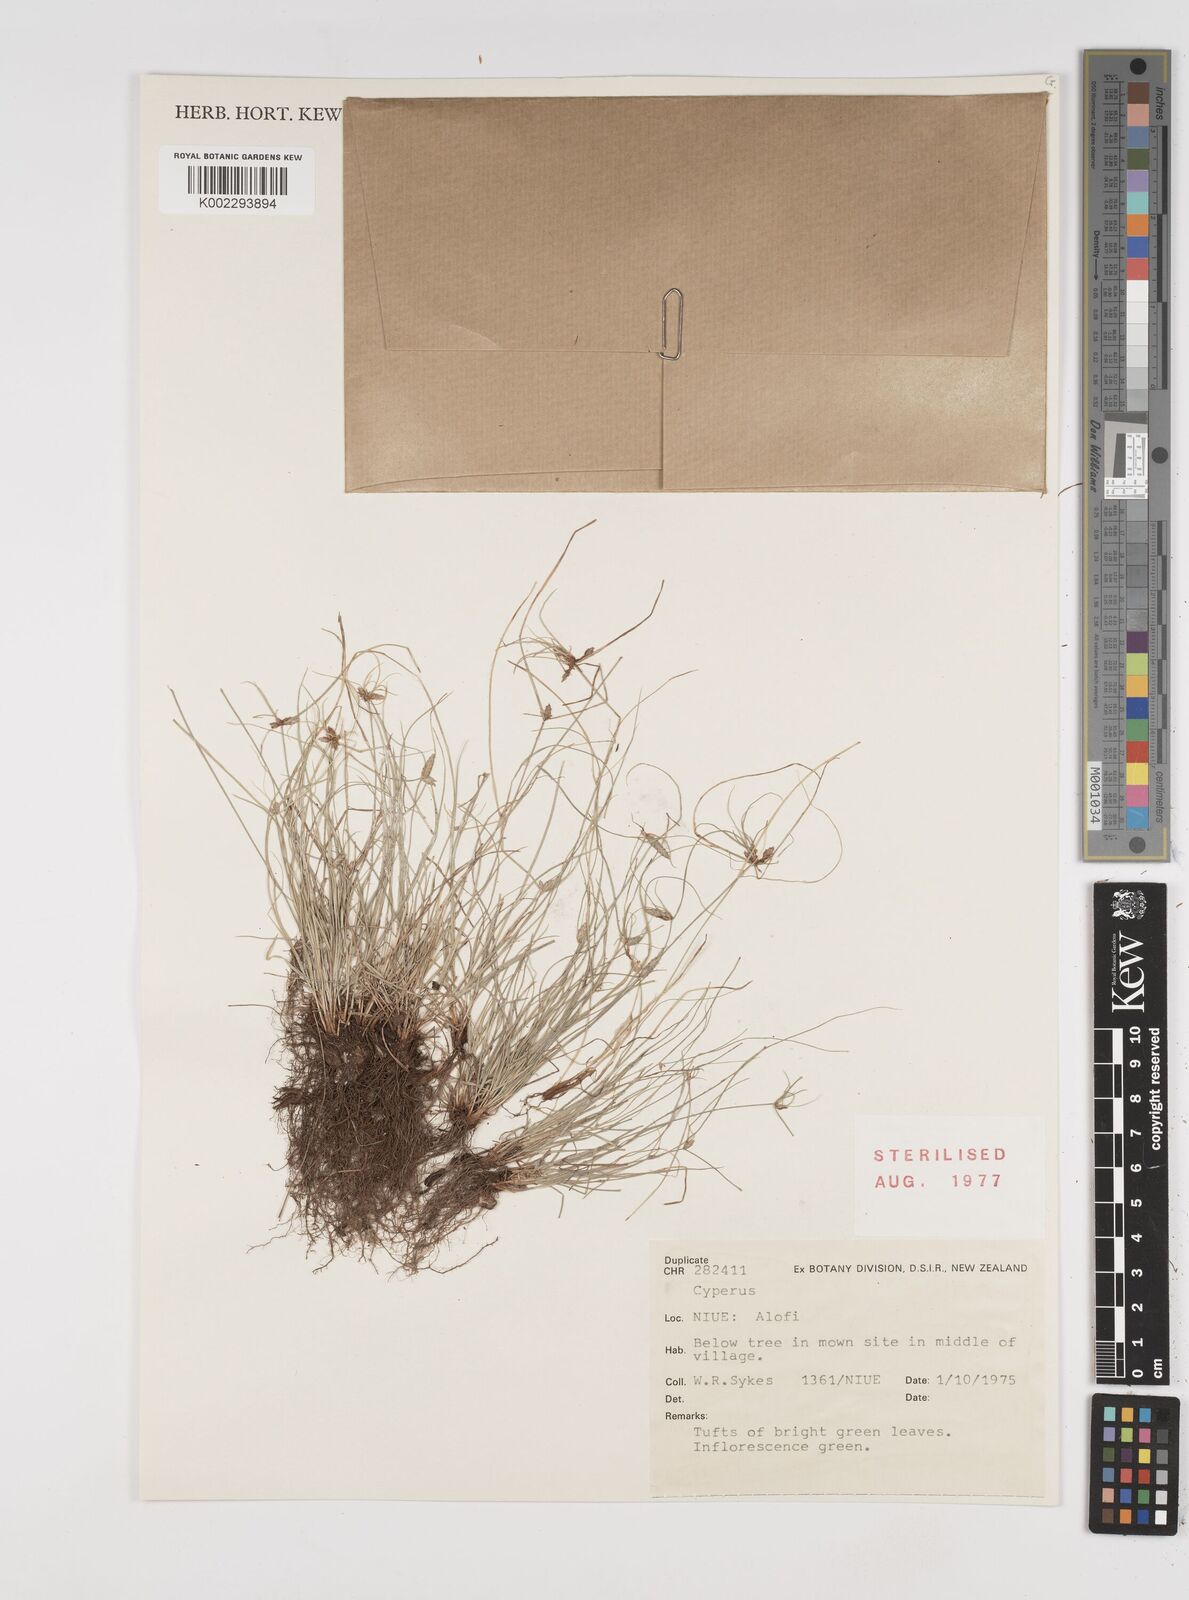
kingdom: Plantae
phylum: Tracheophyta
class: Liliopsida
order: Poales
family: Cyperaceae
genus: Cyperus
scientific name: Cyperus
